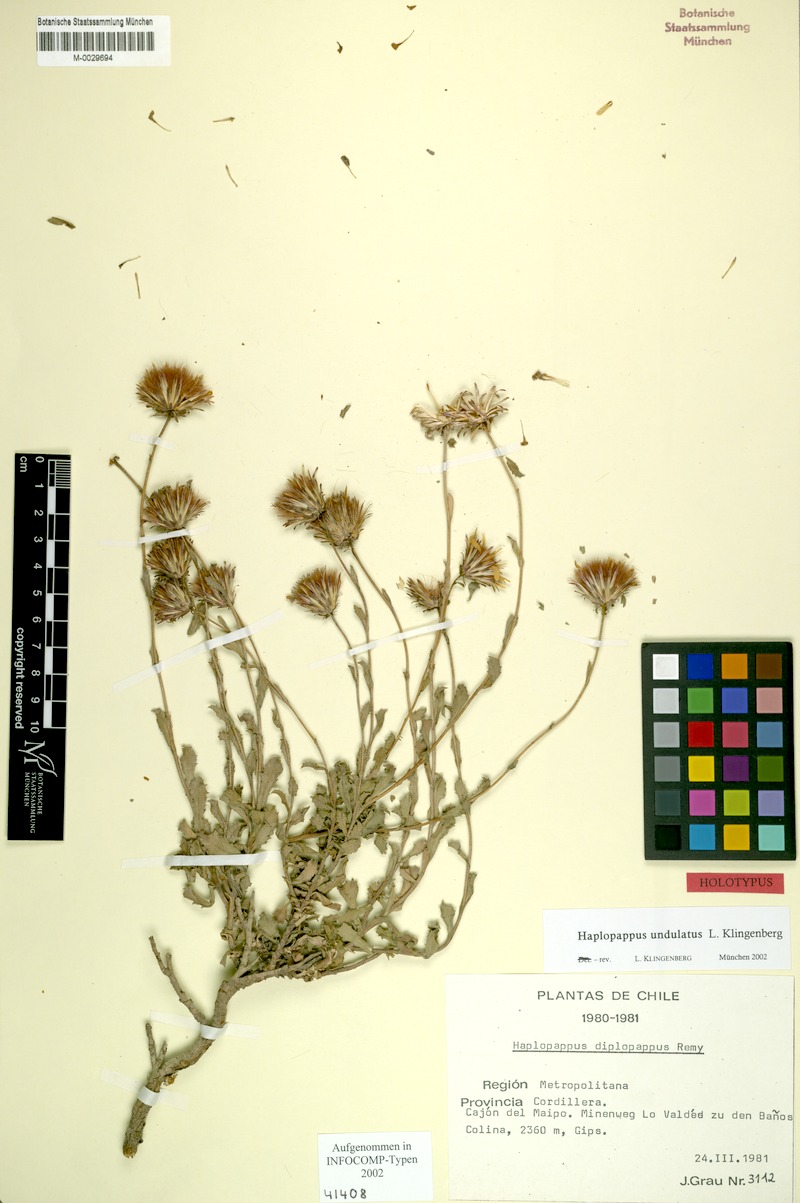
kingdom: Plantae
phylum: Tracheophyta
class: Magnoliopsida
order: Asterales
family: Asteraceae
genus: Haplopappus
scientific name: Haplopappus undulatus
